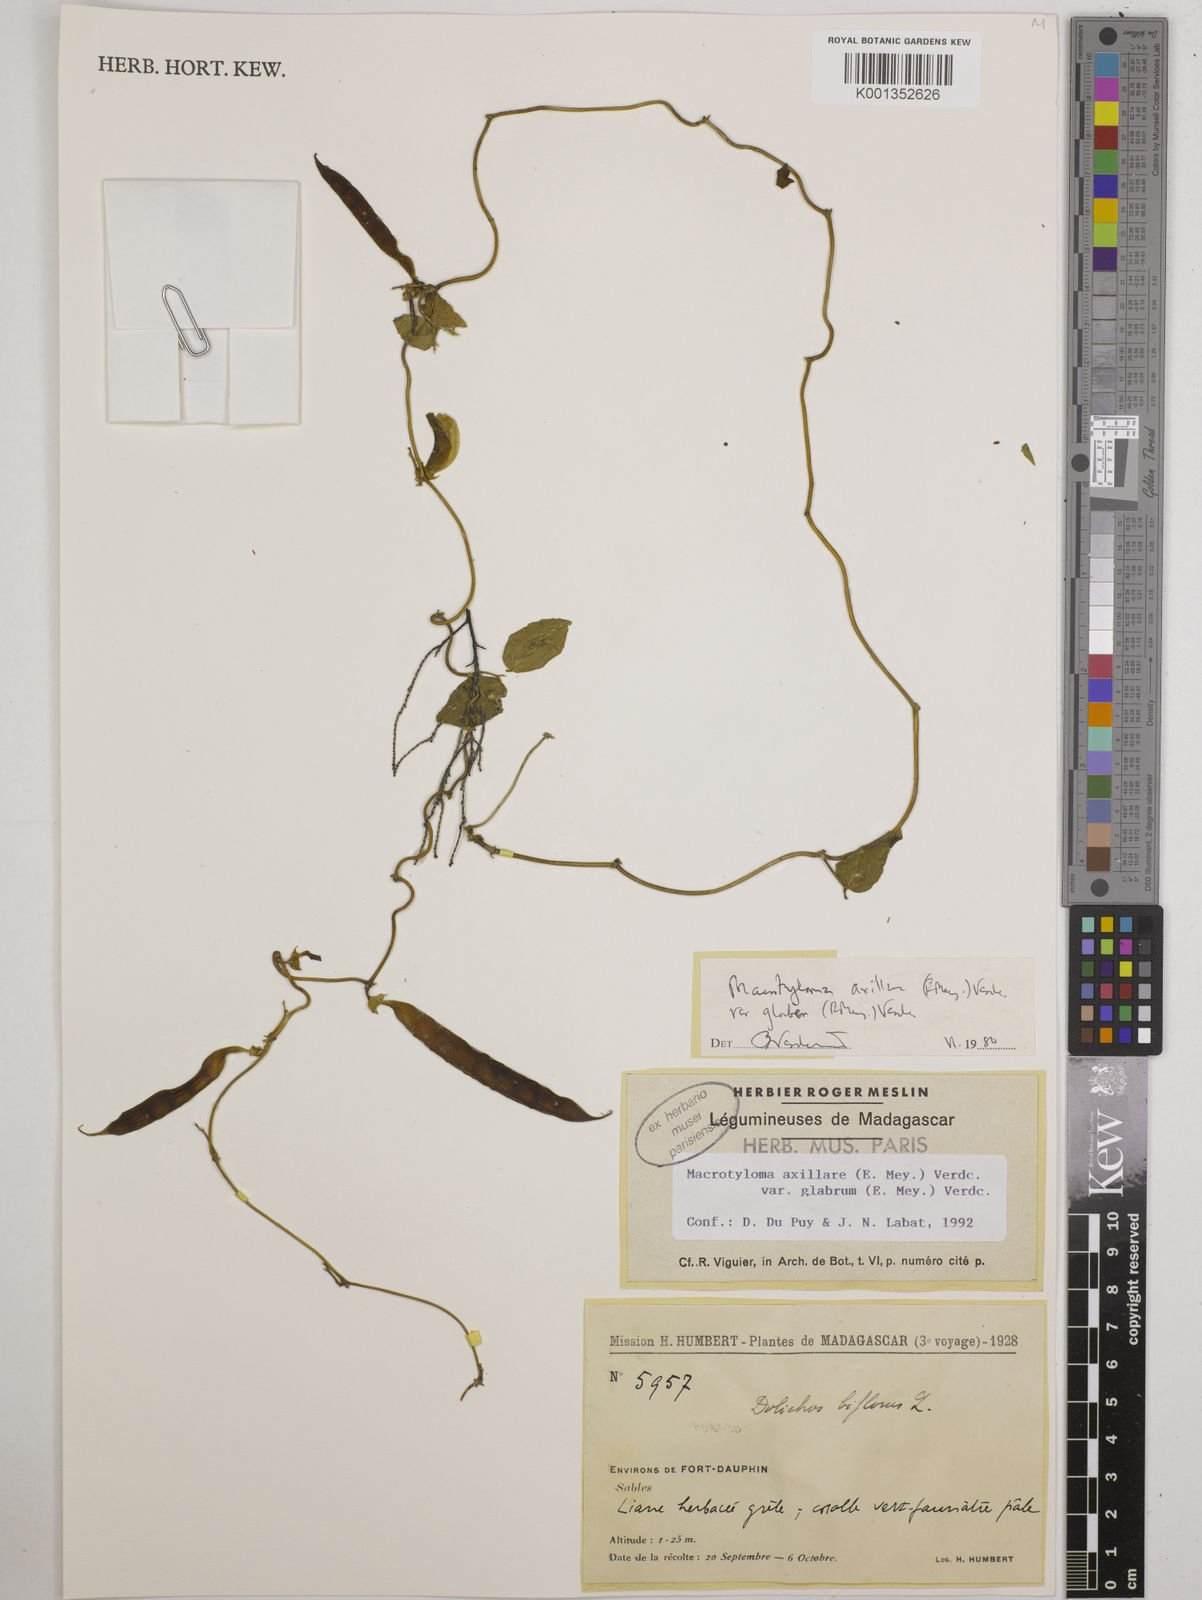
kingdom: Plantae
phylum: Tracheophyta
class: Magnoliopsida
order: Fabales
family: Fabaceae
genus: Macrotyloma
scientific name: Macrotyloma
